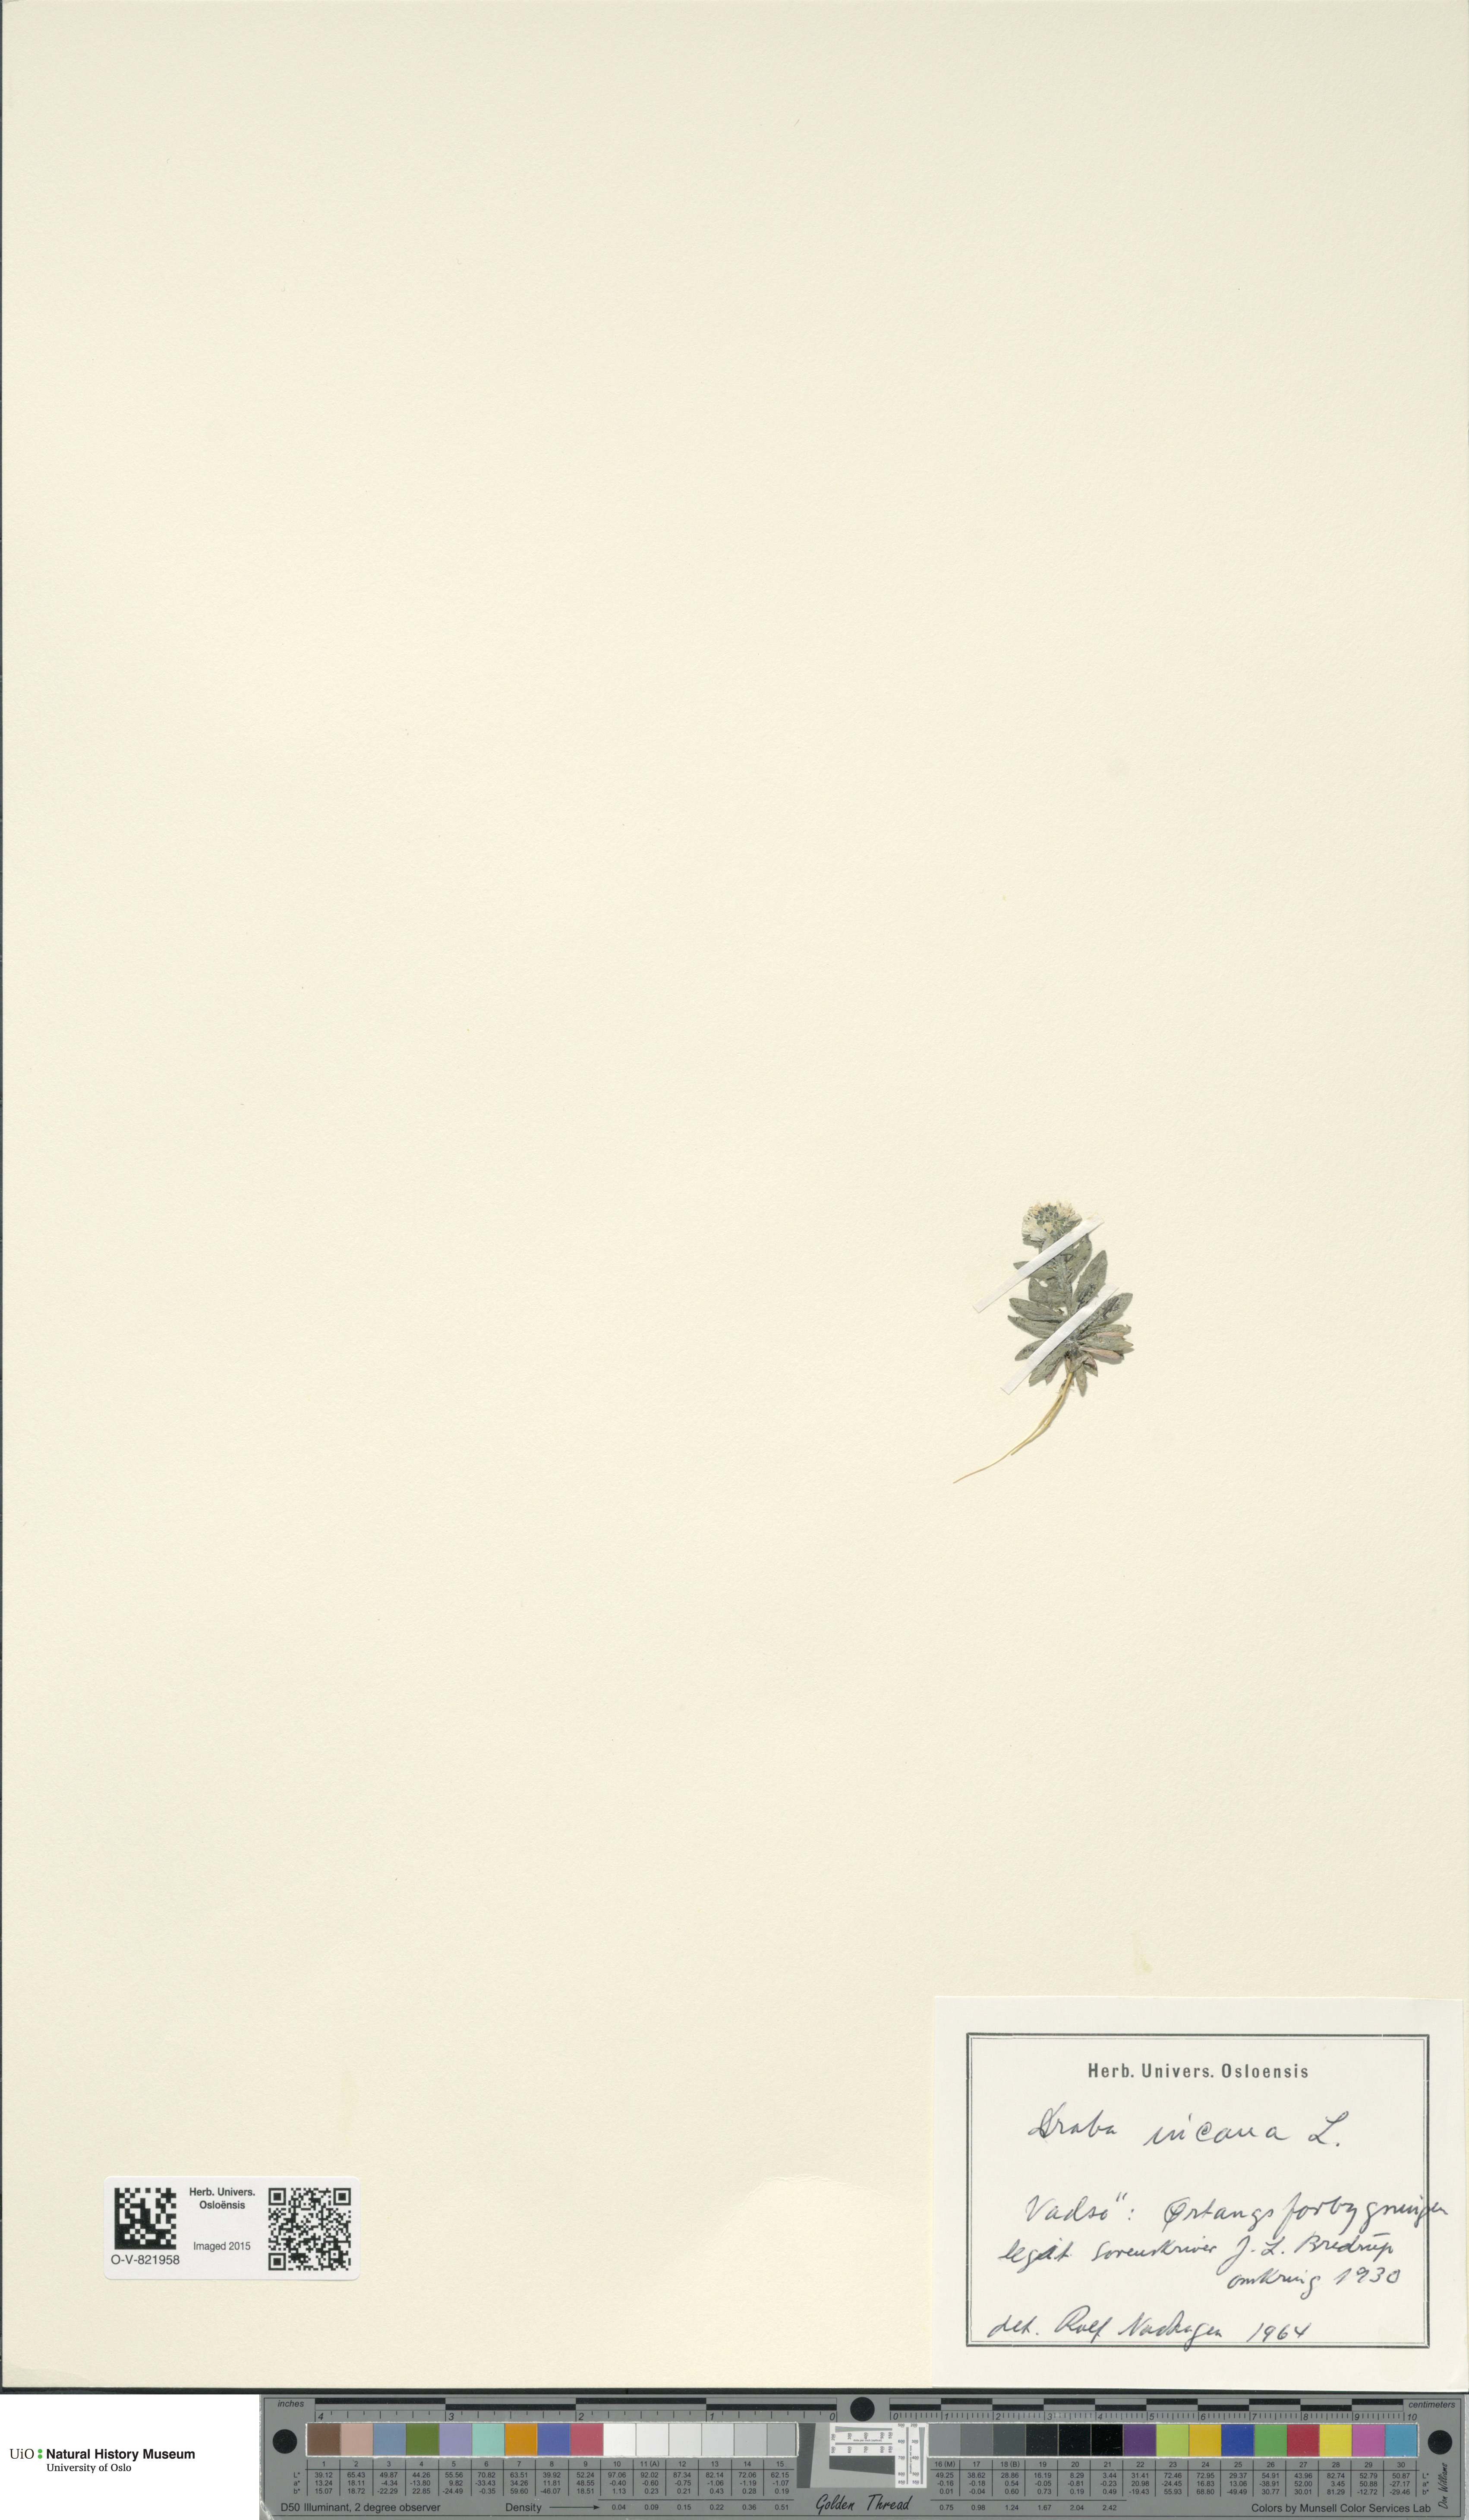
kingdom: Plantae
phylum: Tracheophyta
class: Magnoliopsida
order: Brassicales
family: Brassicaceae
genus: Draba
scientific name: Draba incana
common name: Hoary whitlow-grass
